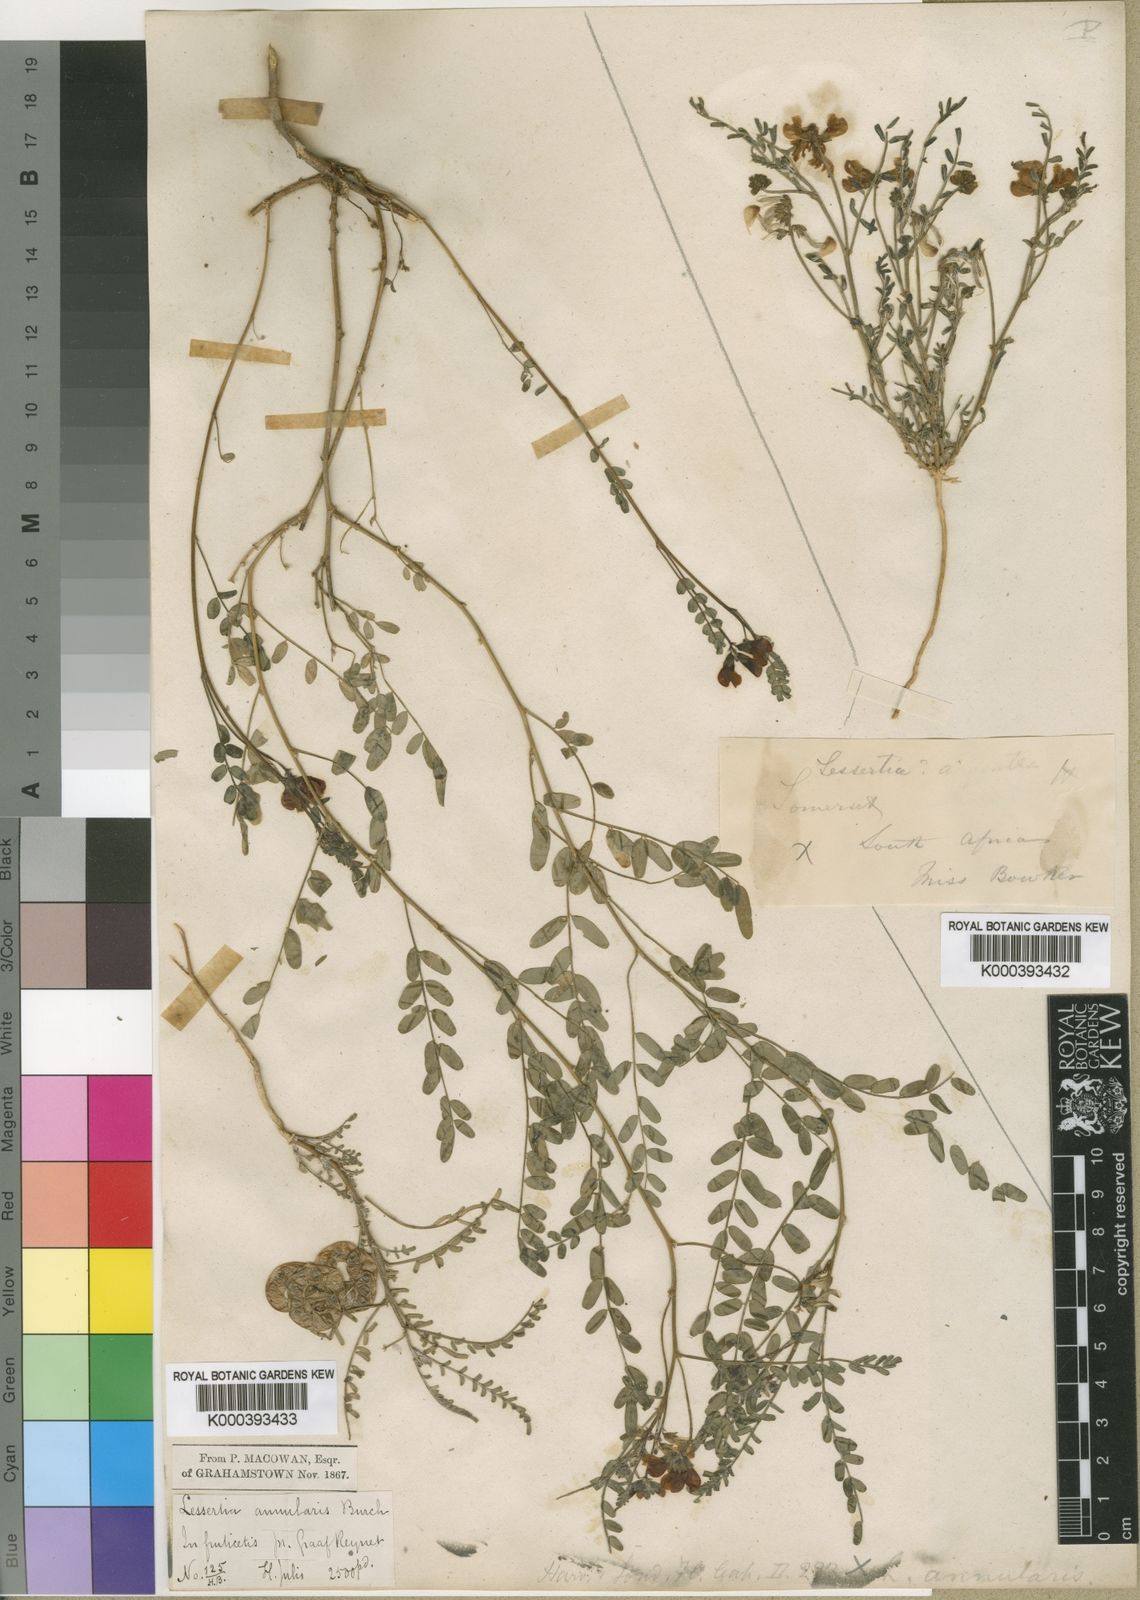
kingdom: Plantae
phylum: Tracheophyta
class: Magnoliopsida
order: Fabales
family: Fabaceae
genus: Lessertia
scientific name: Lessertia annularis
